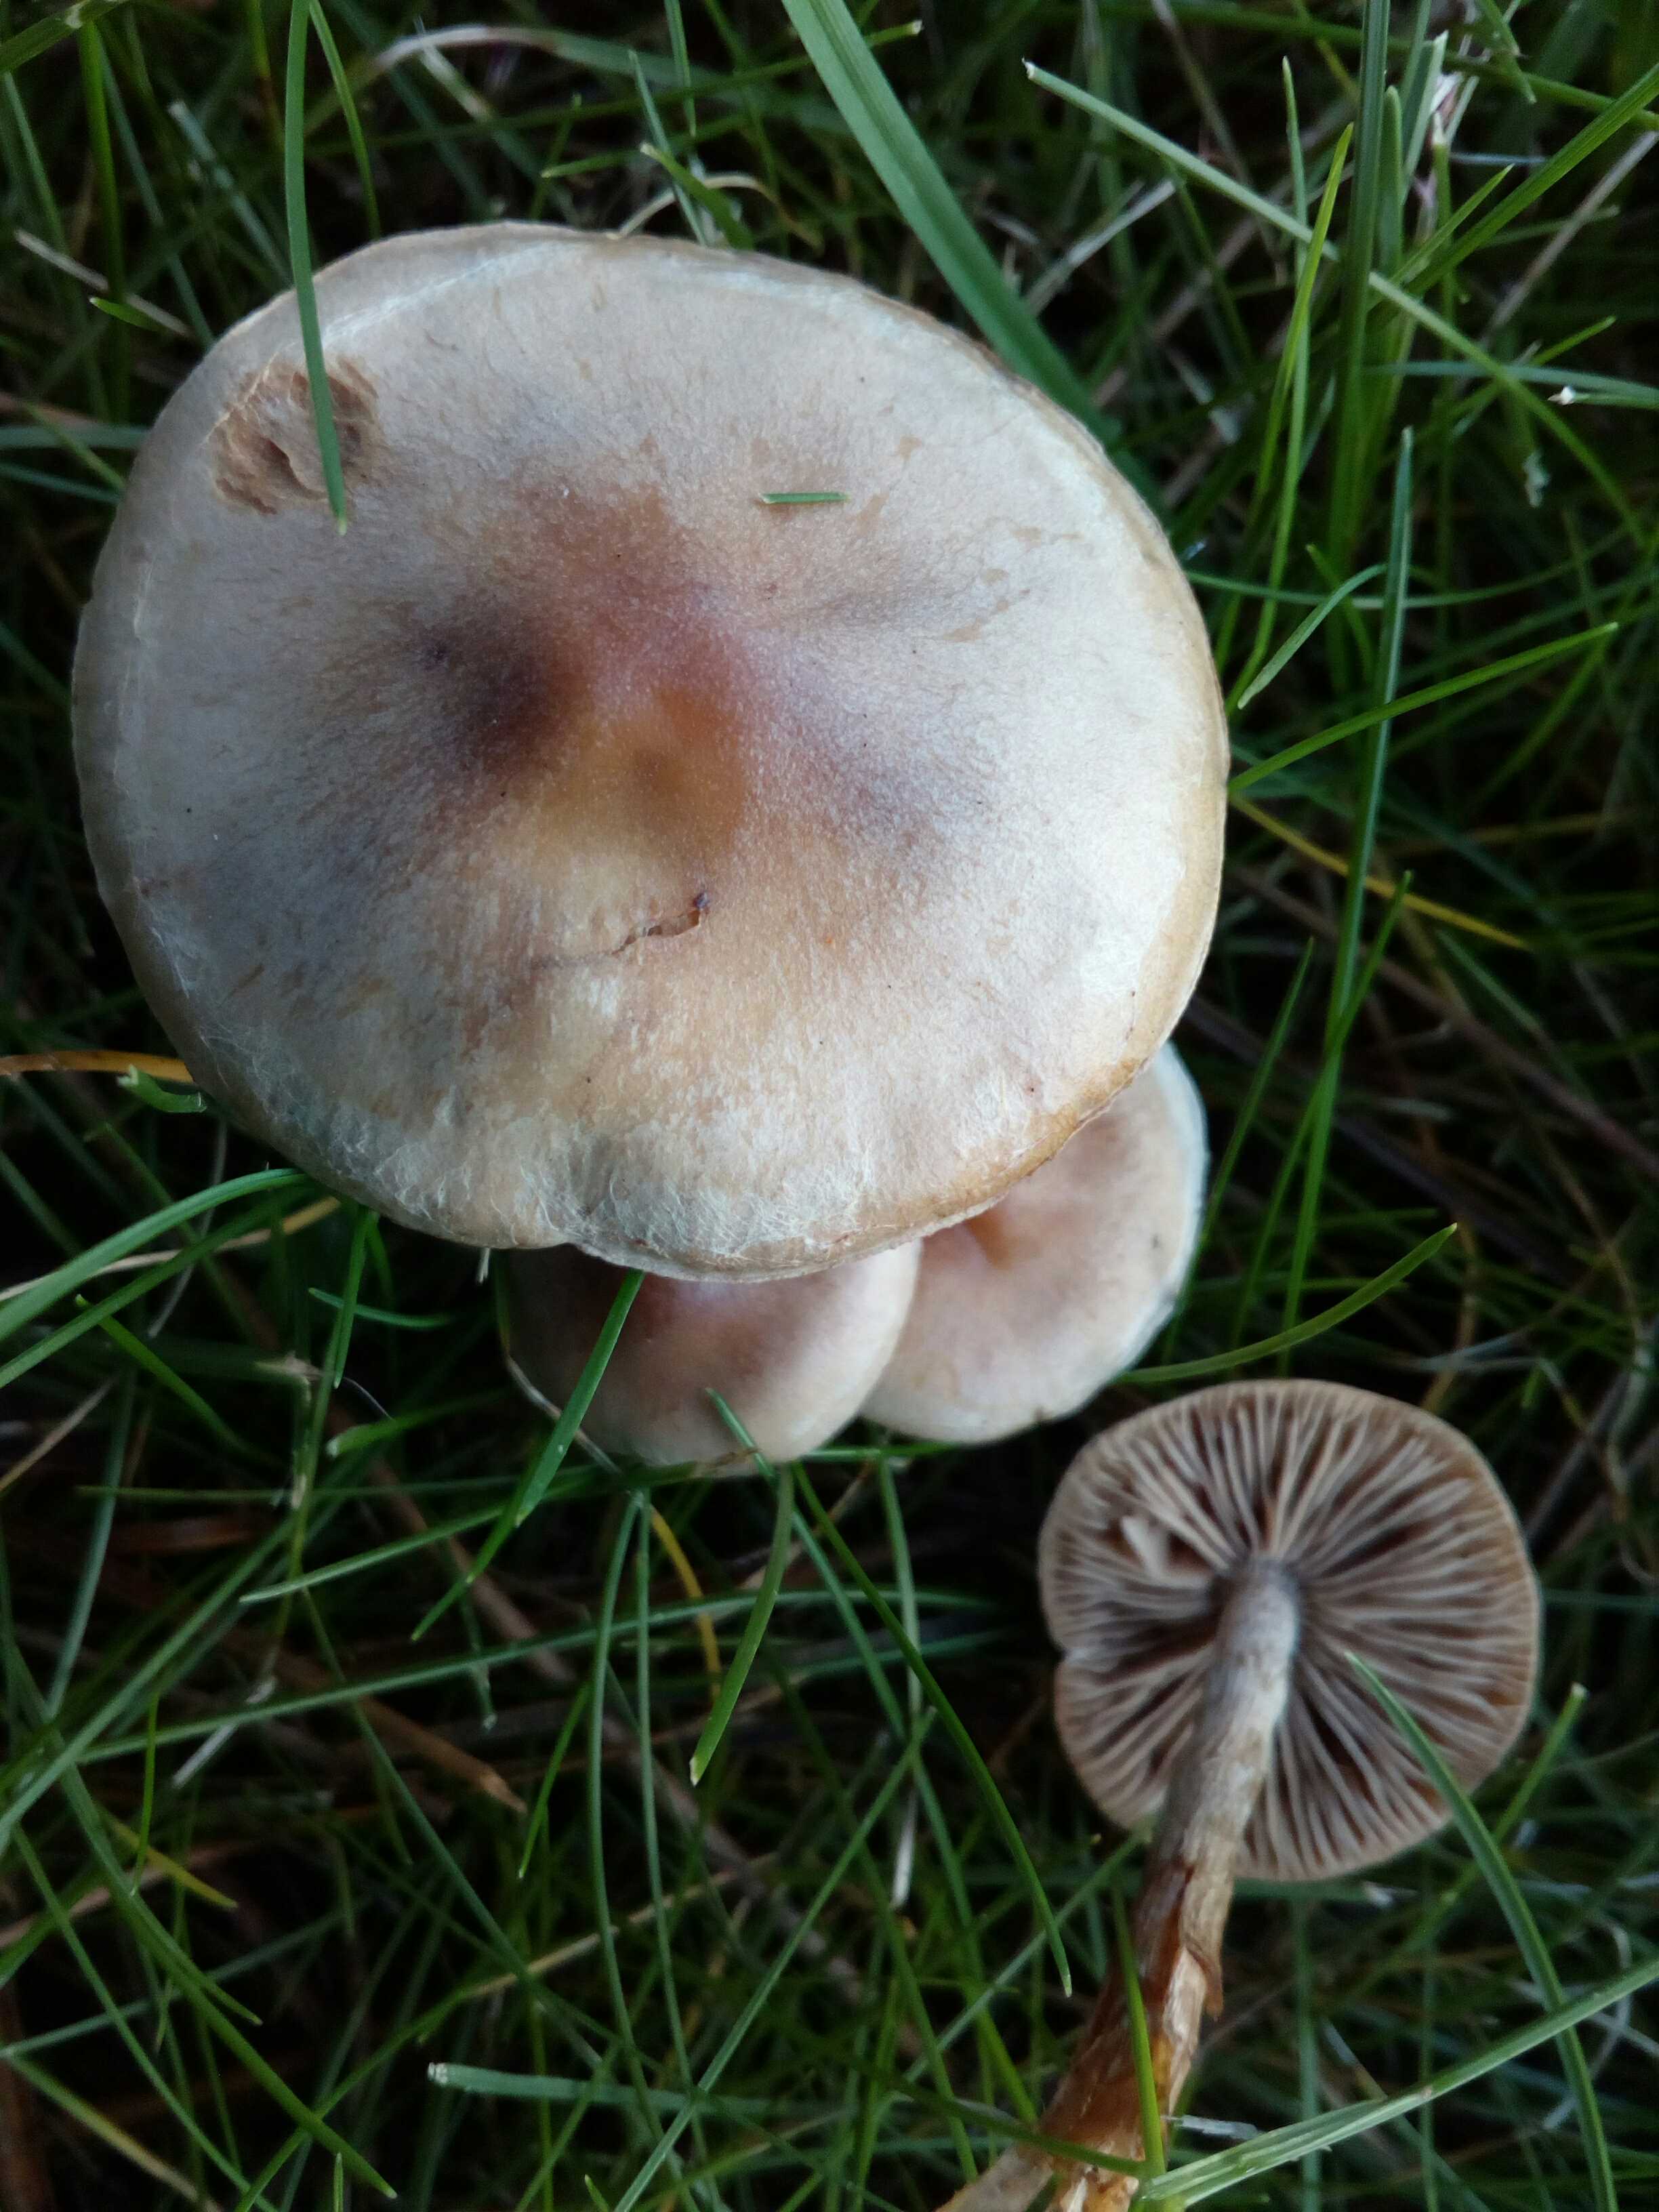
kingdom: Fungi
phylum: Basidiomycota
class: Agaricomycetes
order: Agaricales
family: Hymenogastraceae
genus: Hebeloma
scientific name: Hebeloma mesophaeum
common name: lerbrun tåreblad
